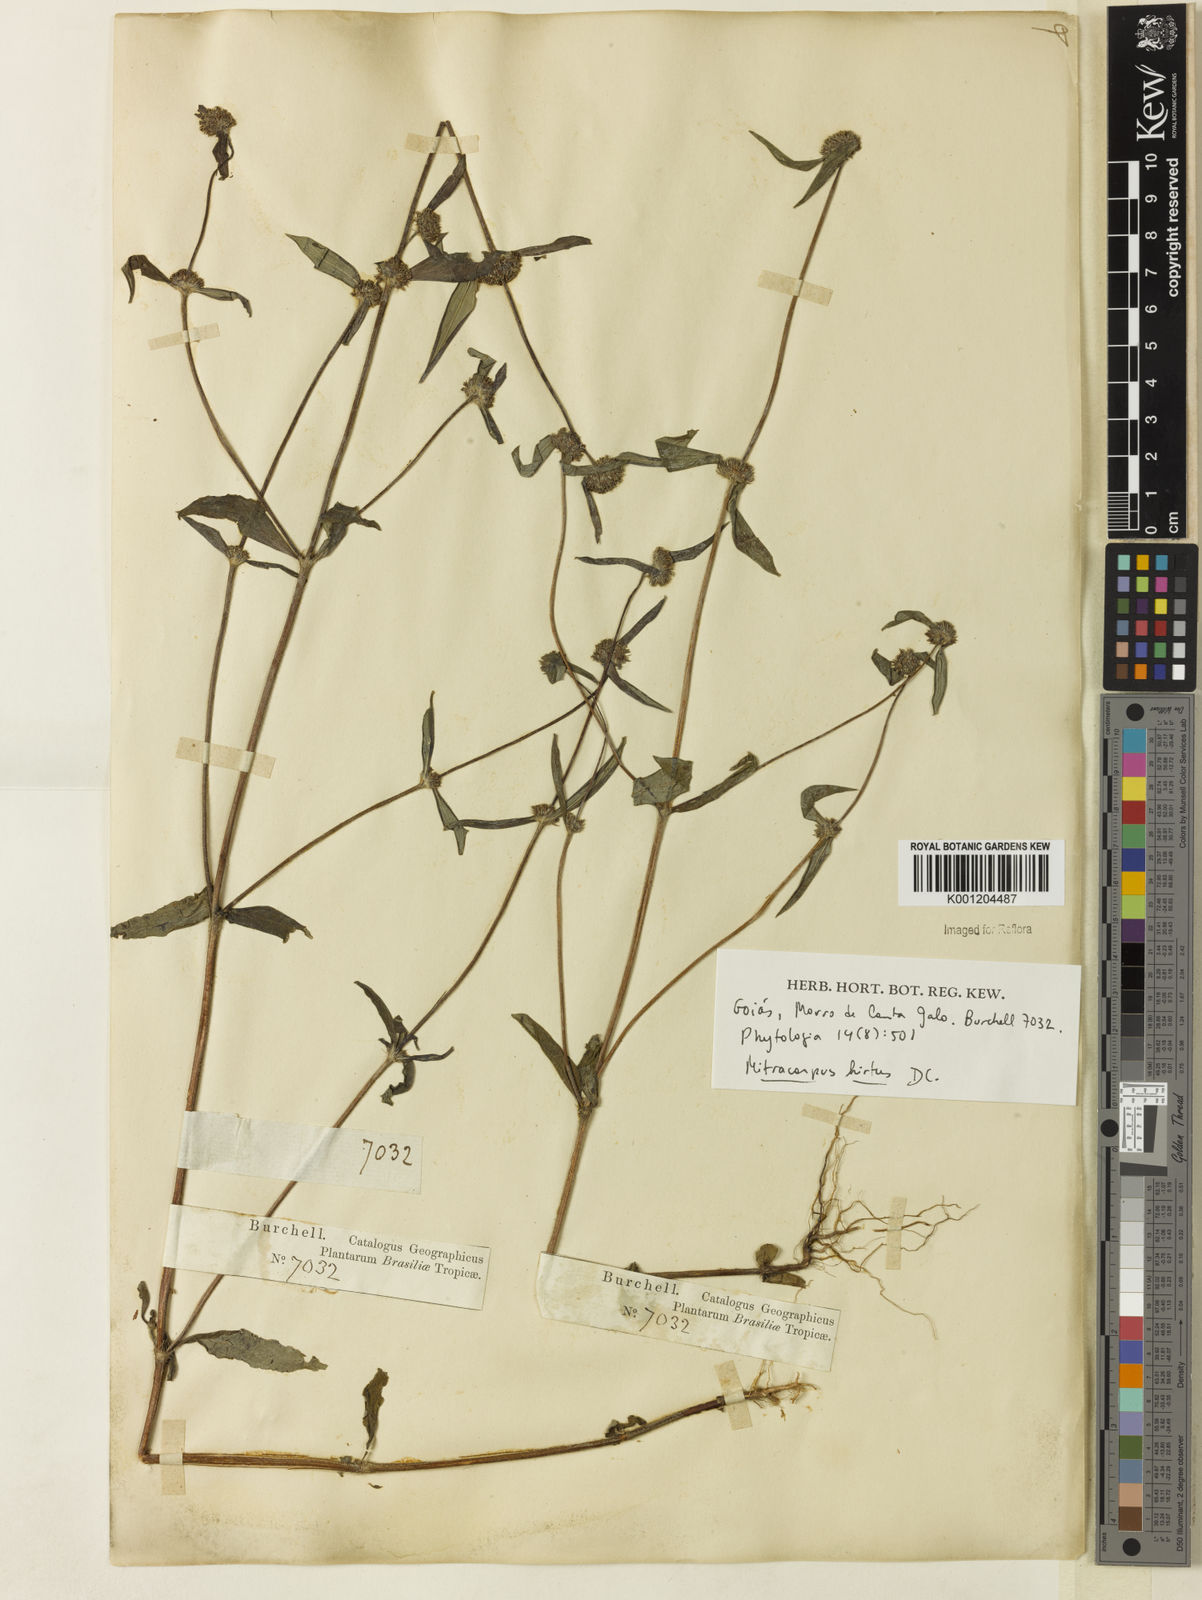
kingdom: Plantae
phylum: Tracheophyta
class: Magnoliopsida
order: Gentianales
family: Rubiaceae
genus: Mitracarpus
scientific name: Mitracarpus hirtus
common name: Tropical girdlepod
